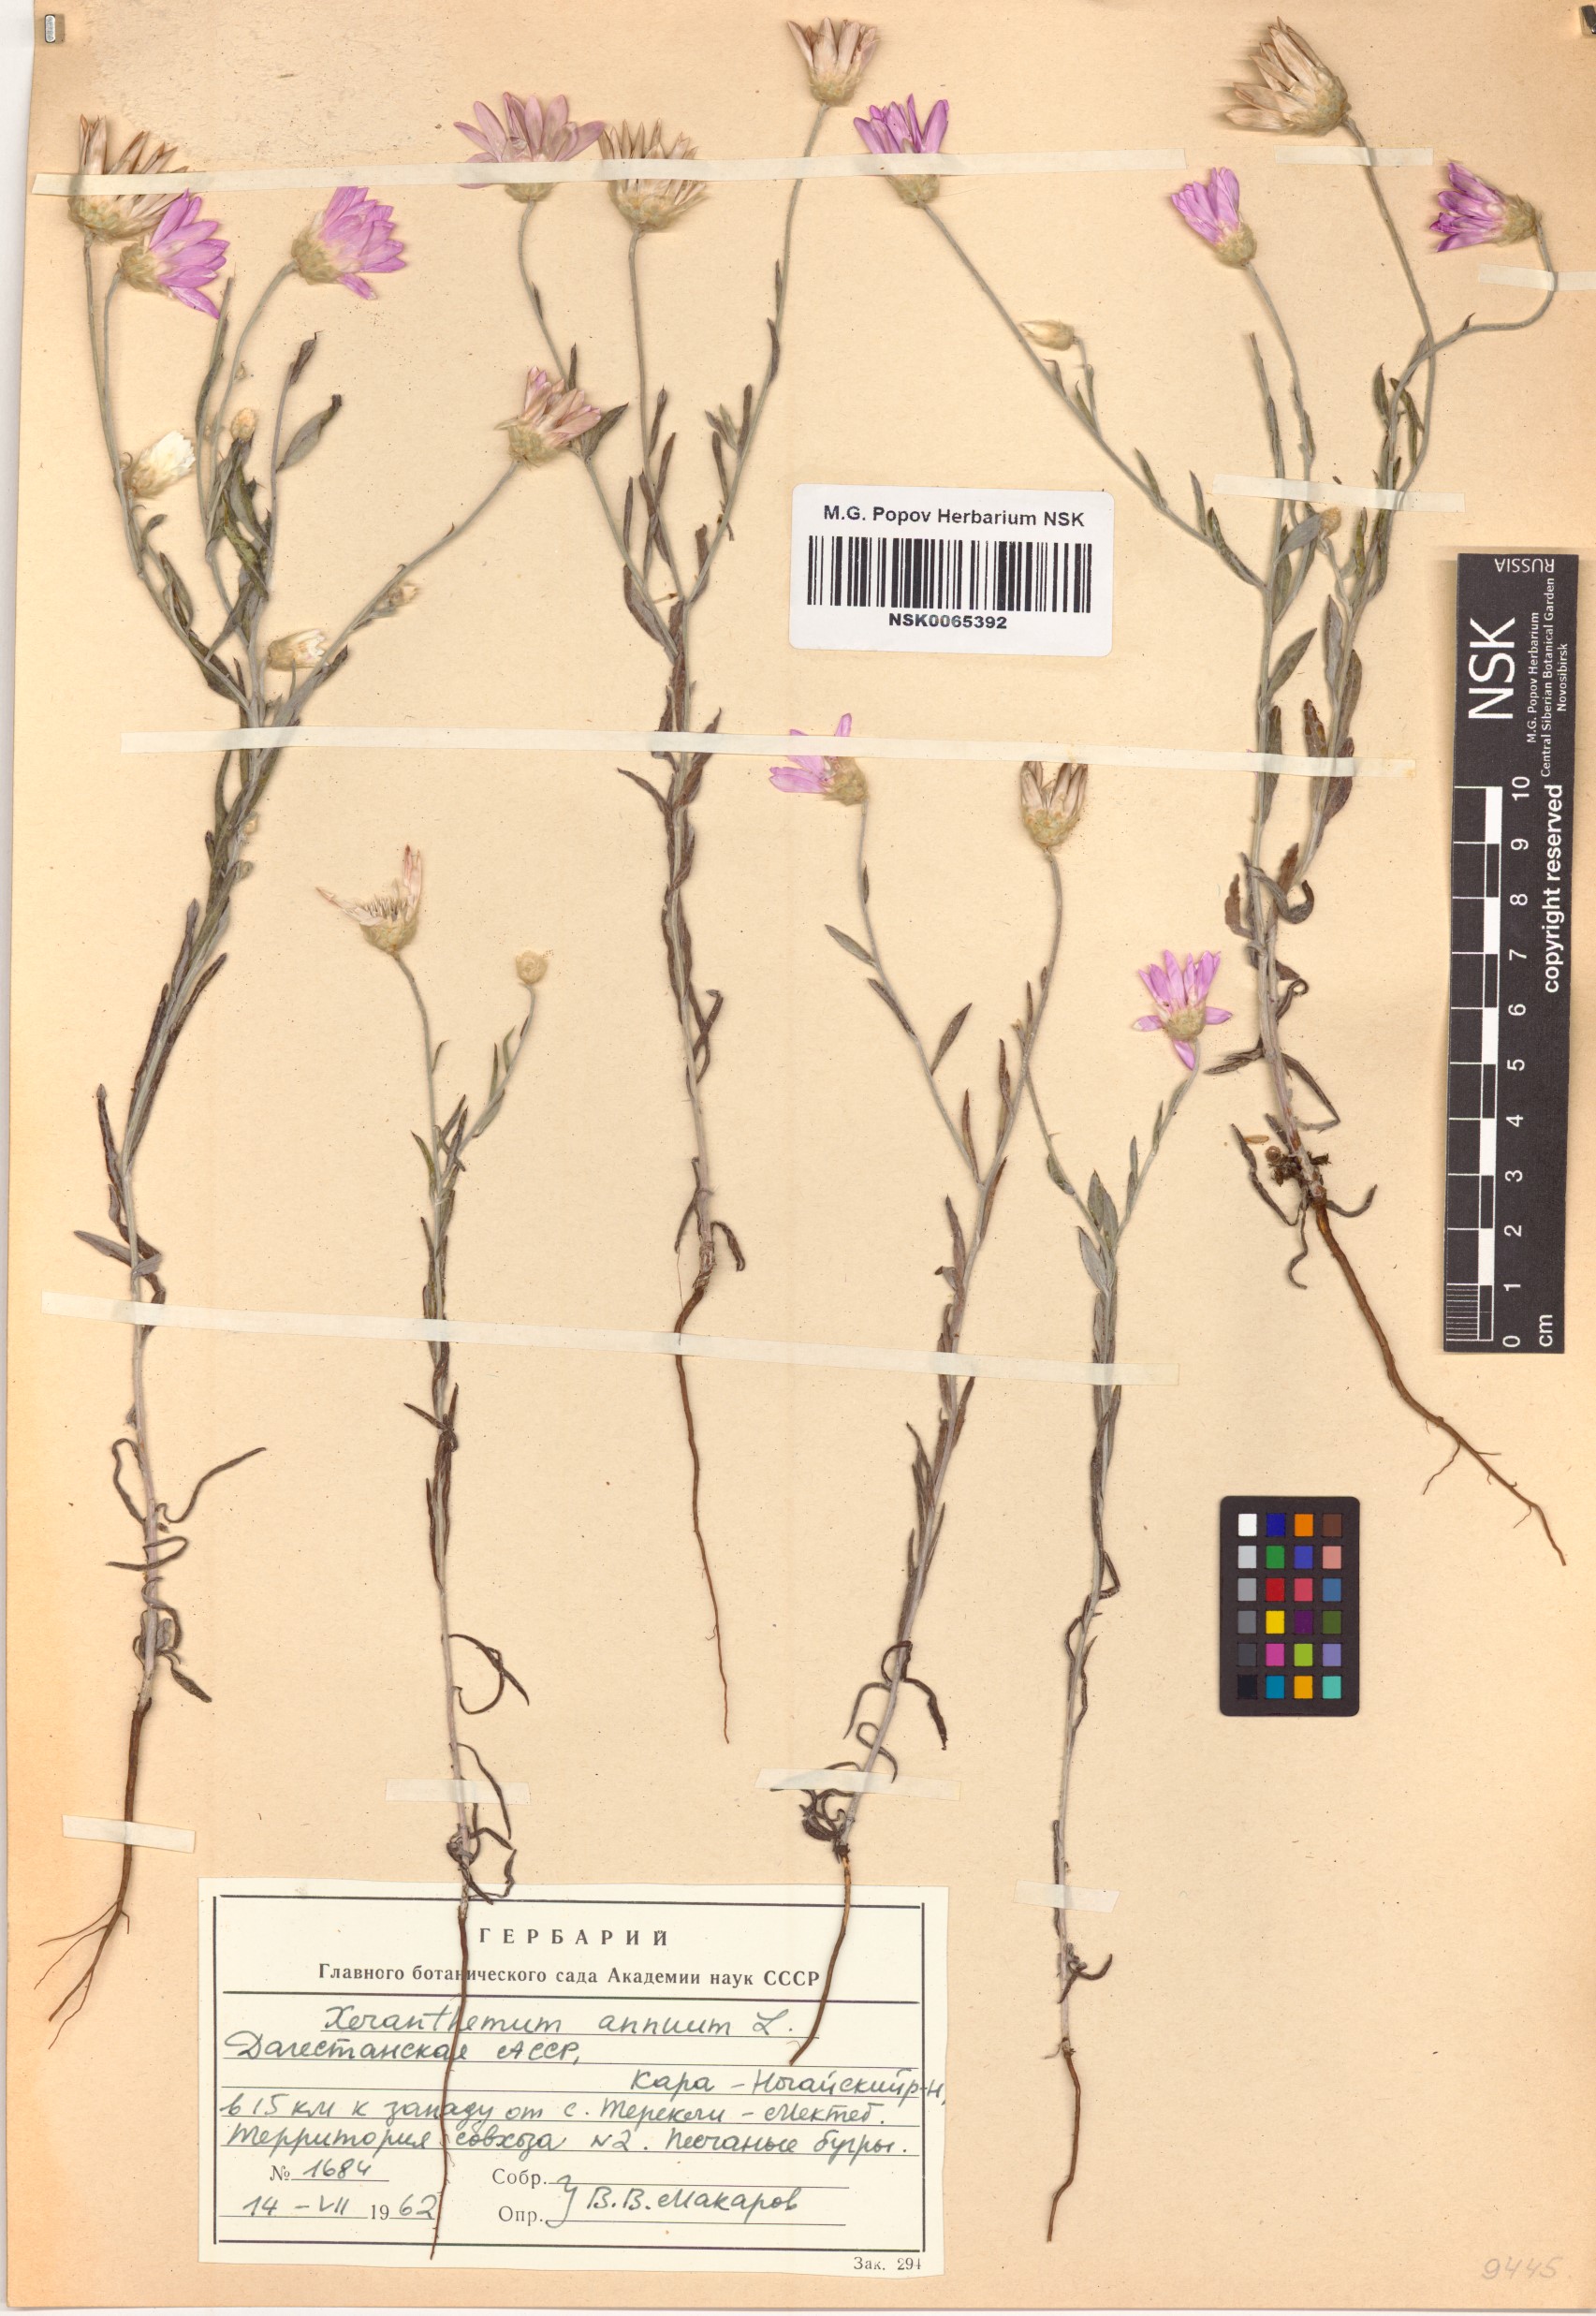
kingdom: Plantae
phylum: Tracheophyta
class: Magnoliopsida
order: Asterales
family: Asteraceae
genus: Xeranthemum
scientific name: Xeranthemum annuum
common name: Immortelle
